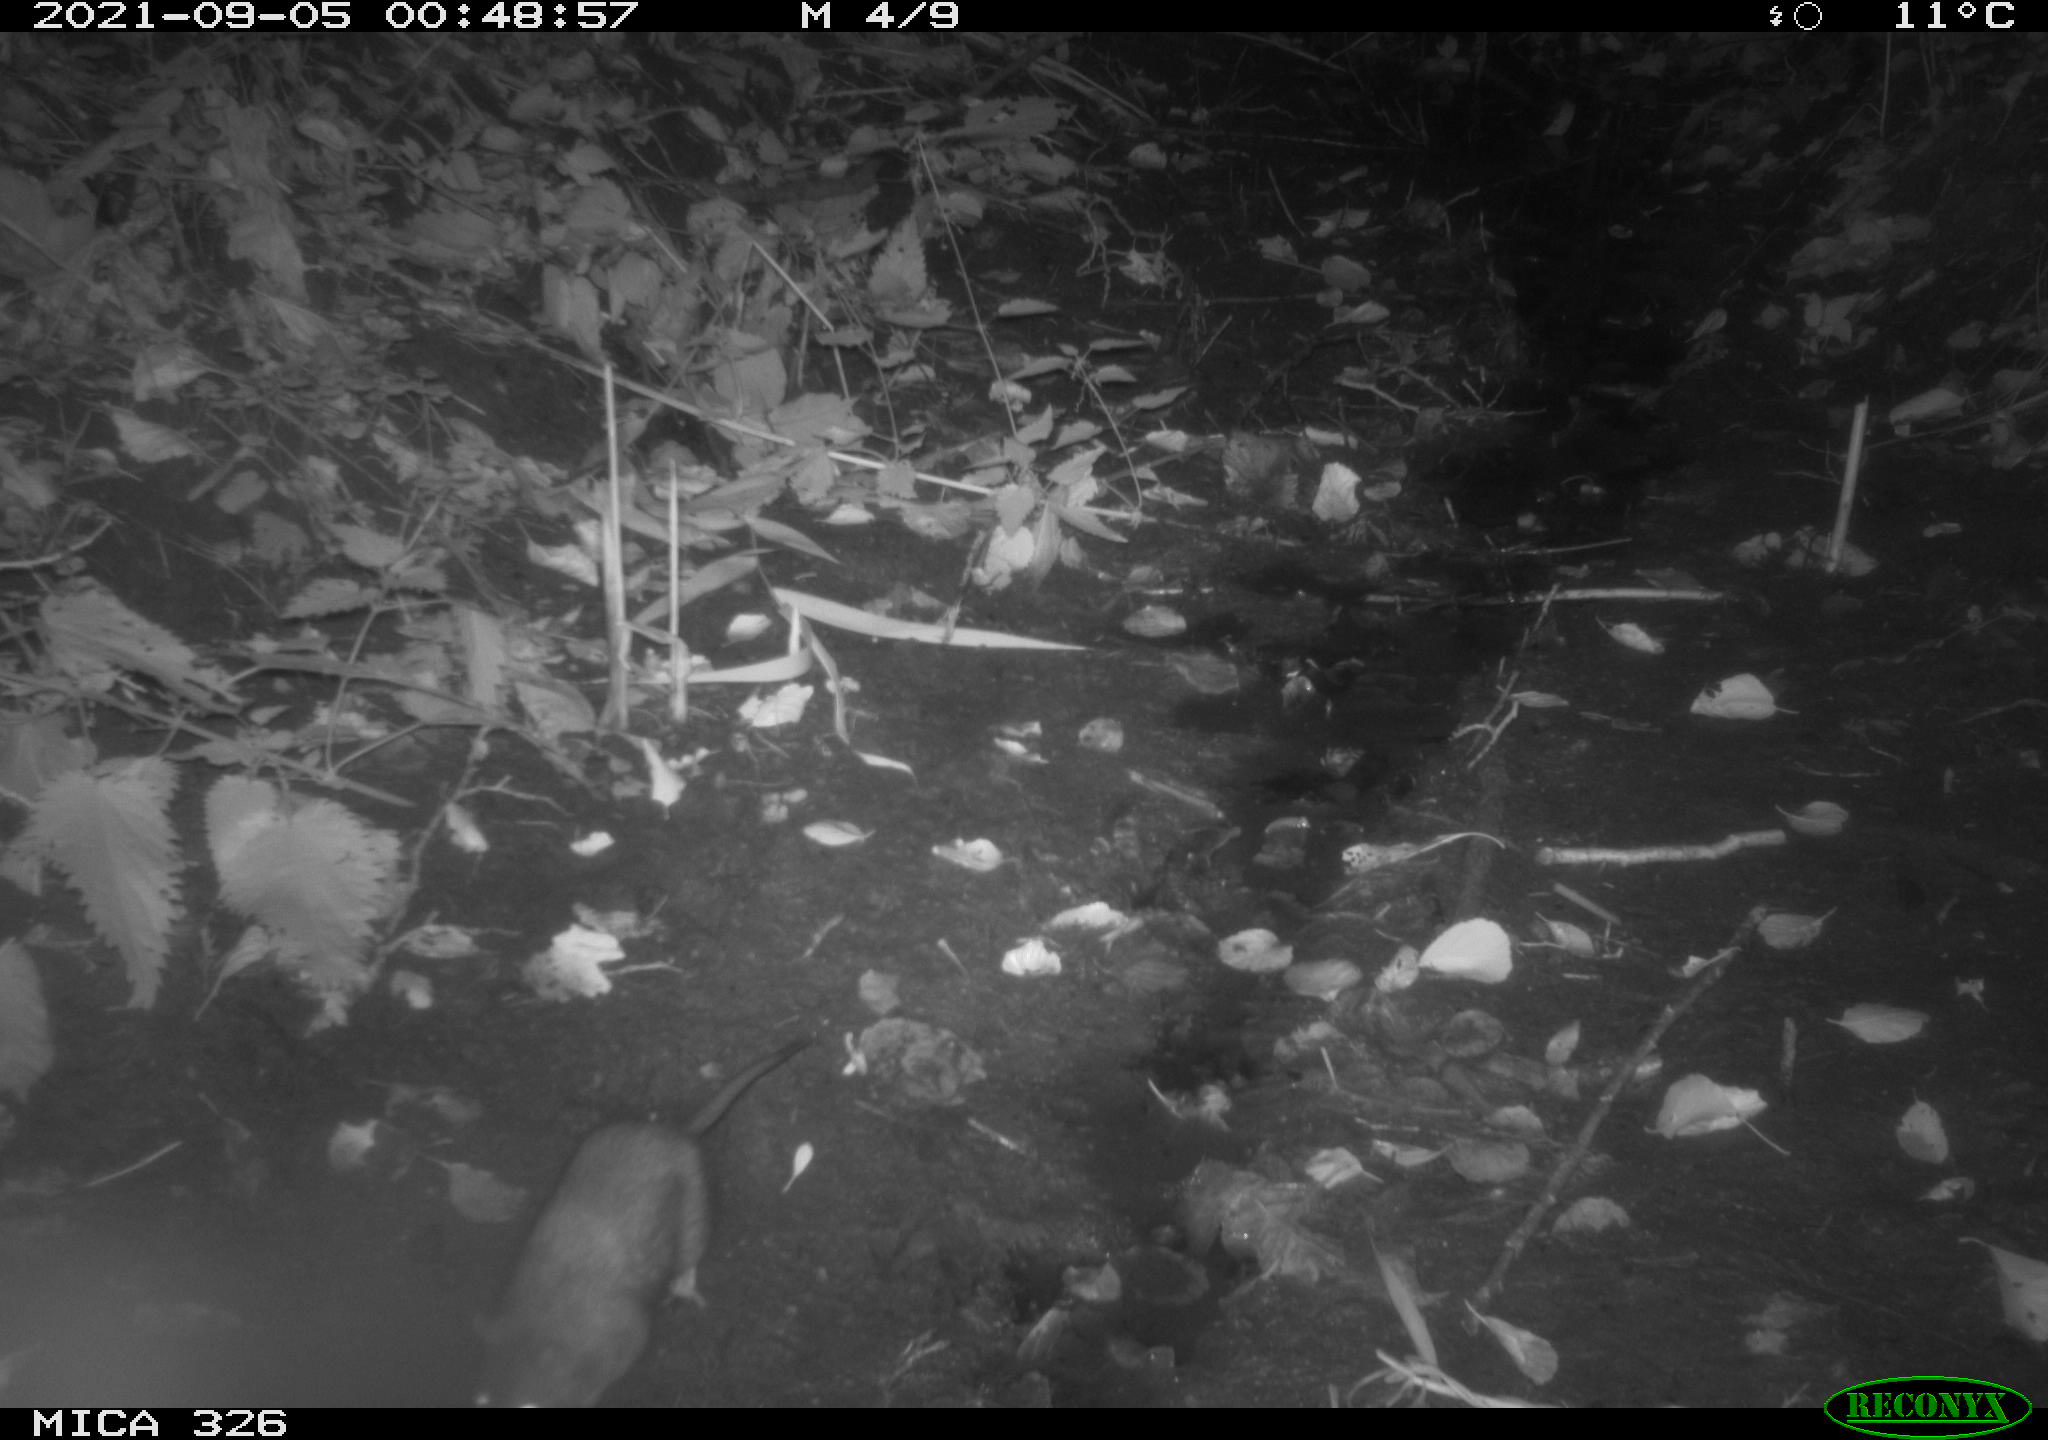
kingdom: Animalia
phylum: Chordata
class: Mammalia
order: Rodentia
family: Muridae
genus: Rattus
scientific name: Rattus norvegicus
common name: Brown rat
